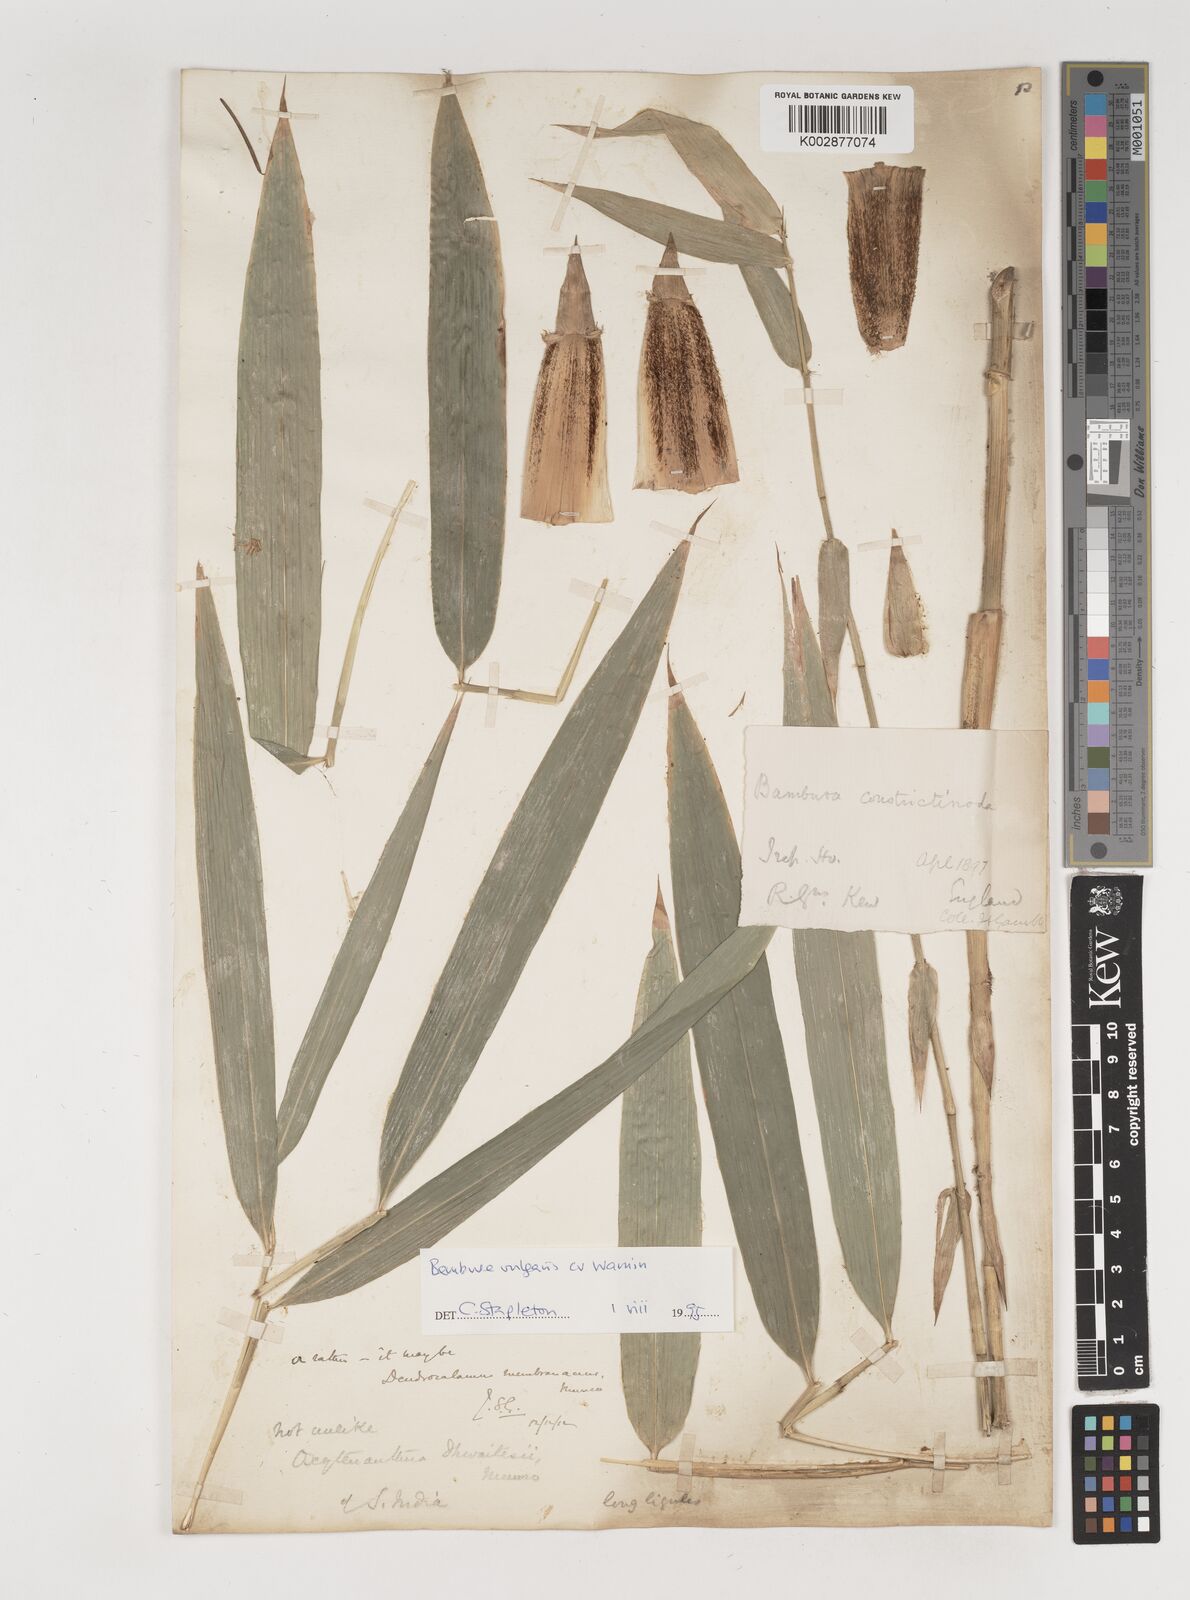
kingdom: Plantae
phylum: Tracheophyta
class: Liliopsida
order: Poales
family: Poaceae
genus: Bambusa
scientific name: Bambusa
